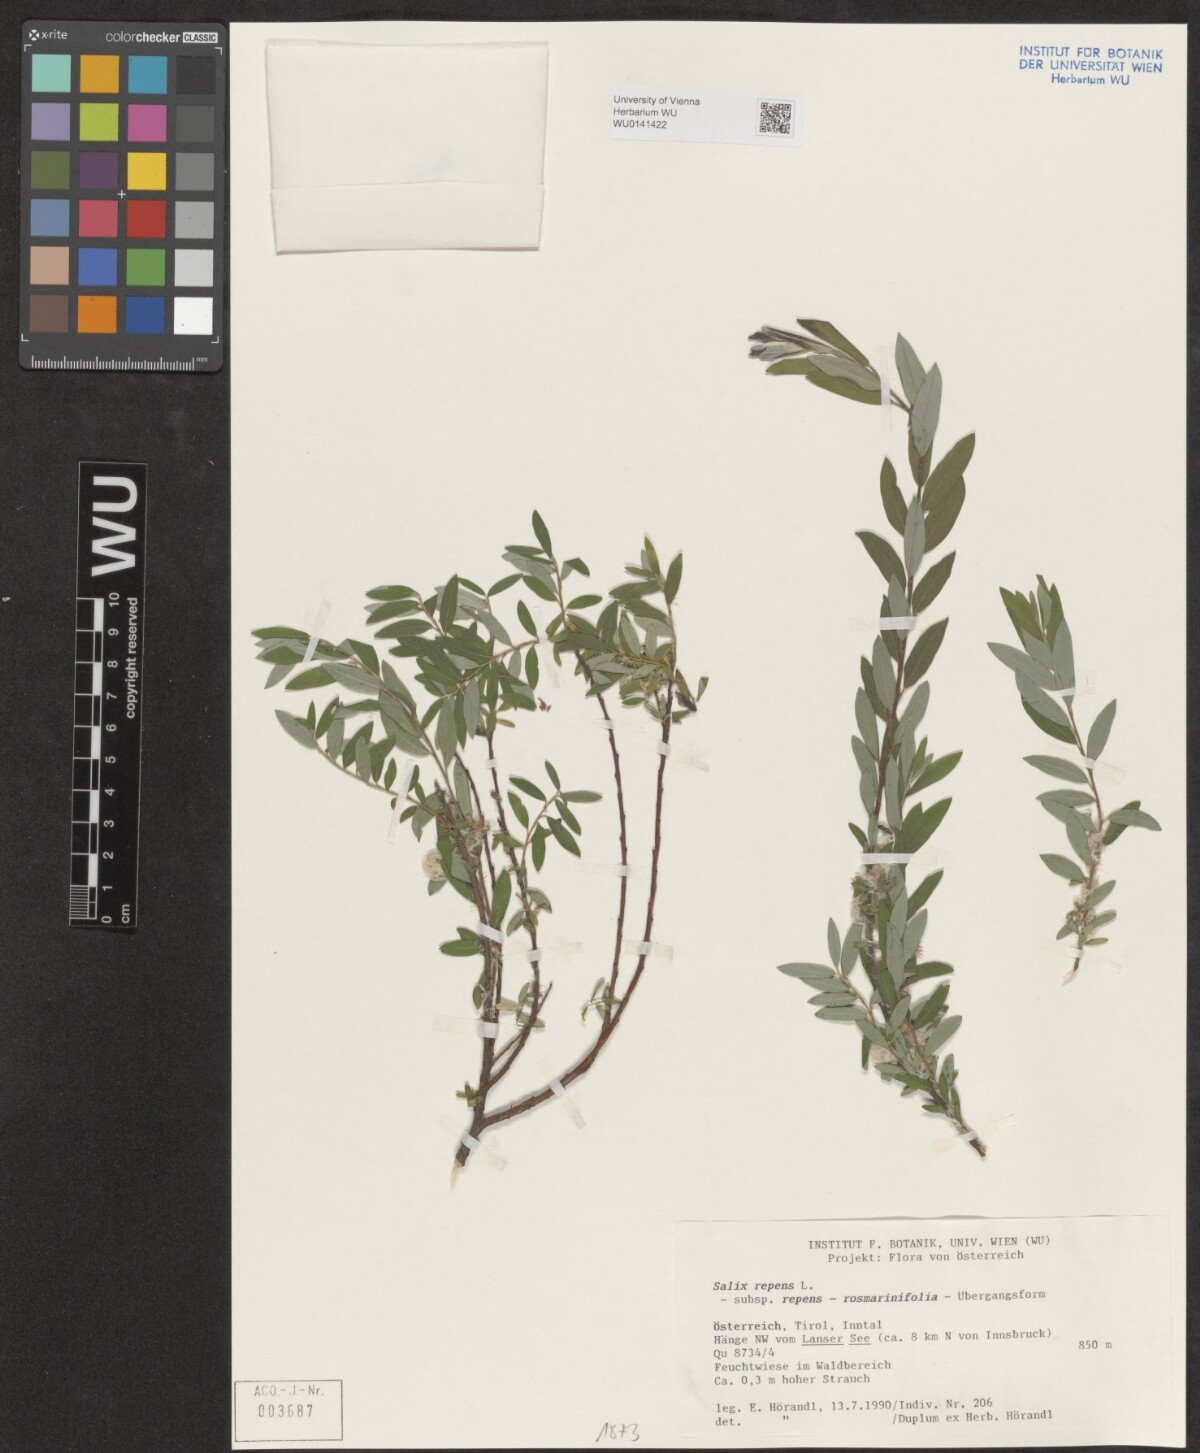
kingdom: Plantae
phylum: Tracheophyta
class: Magnoliopsida
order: Malpighiales
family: Salicaceae
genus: Salix
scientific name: Salix repens
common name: Creeping willow
